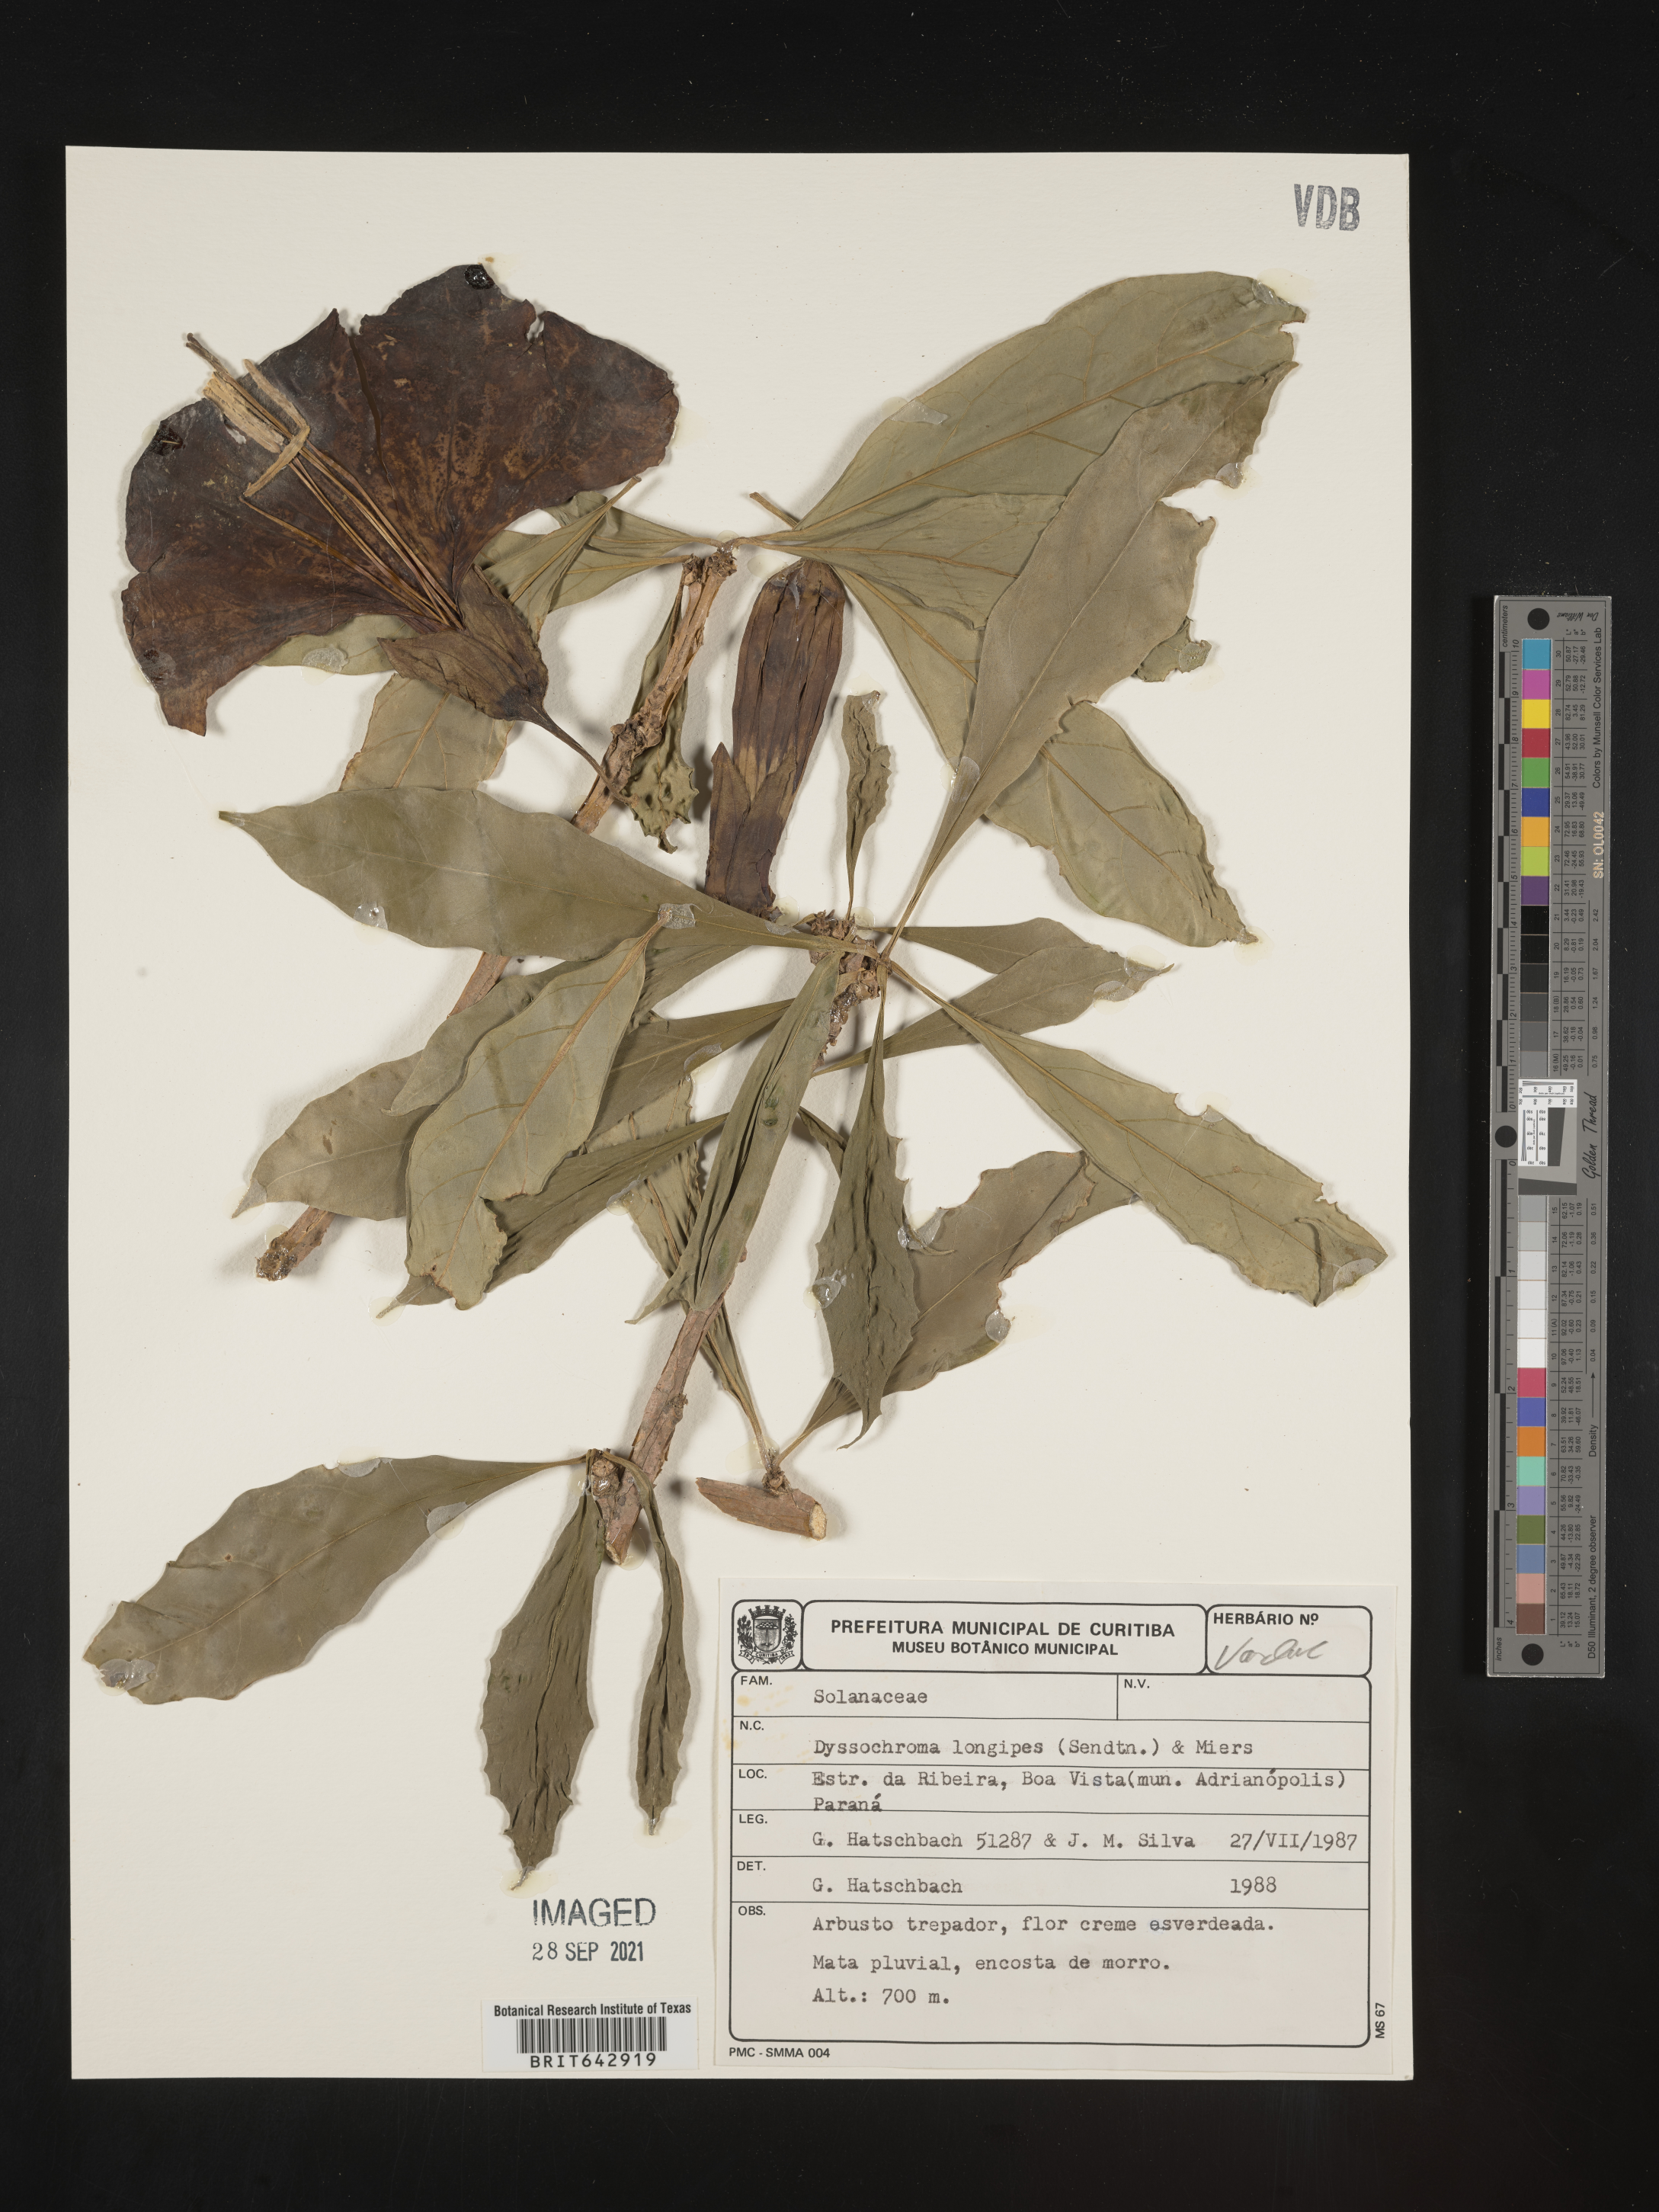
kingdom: Plantae
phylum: Tracheophyta
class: Magnoliopsida
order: Solanales
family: Solanaceae
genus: Dyssochroma
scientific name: Dyssochroma
